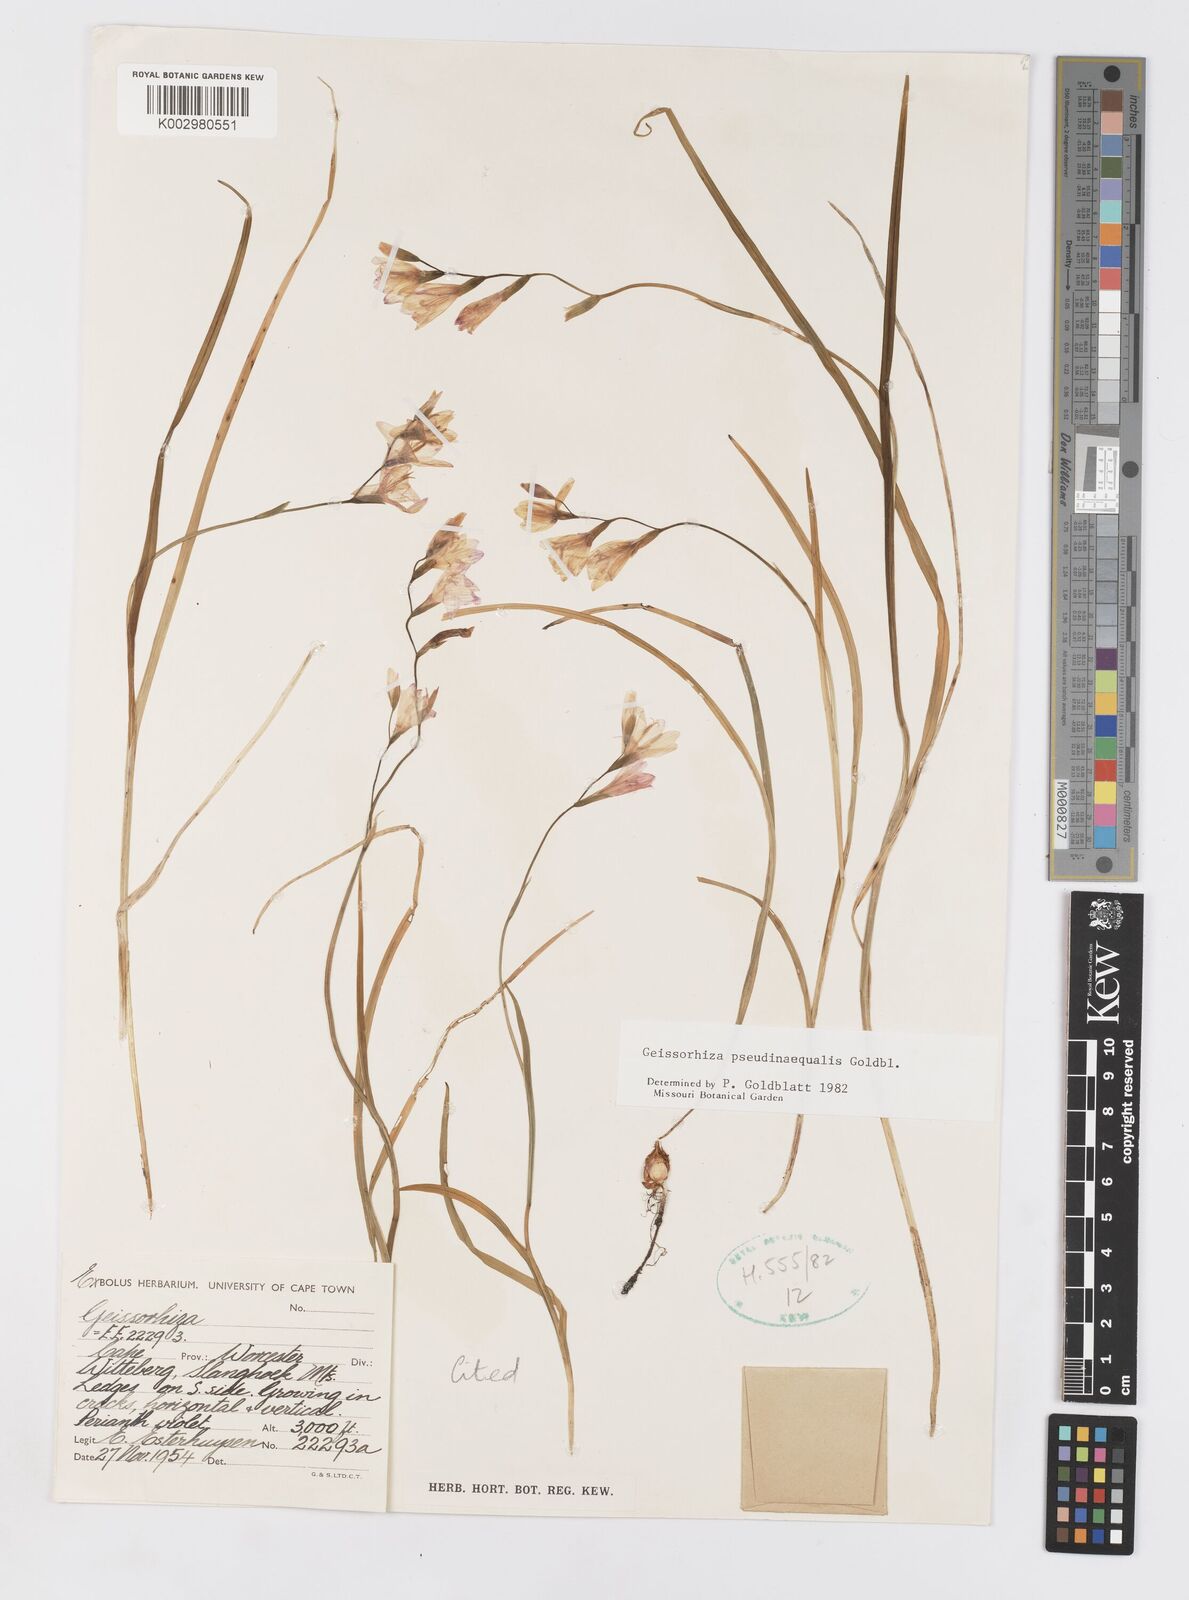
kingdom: Plantae
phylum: Tracheophyta
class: Liliopsida
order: Asparagales
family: Iridaceae
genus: Geissorhiza
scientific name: Geissorhiza pseudinaequalis
